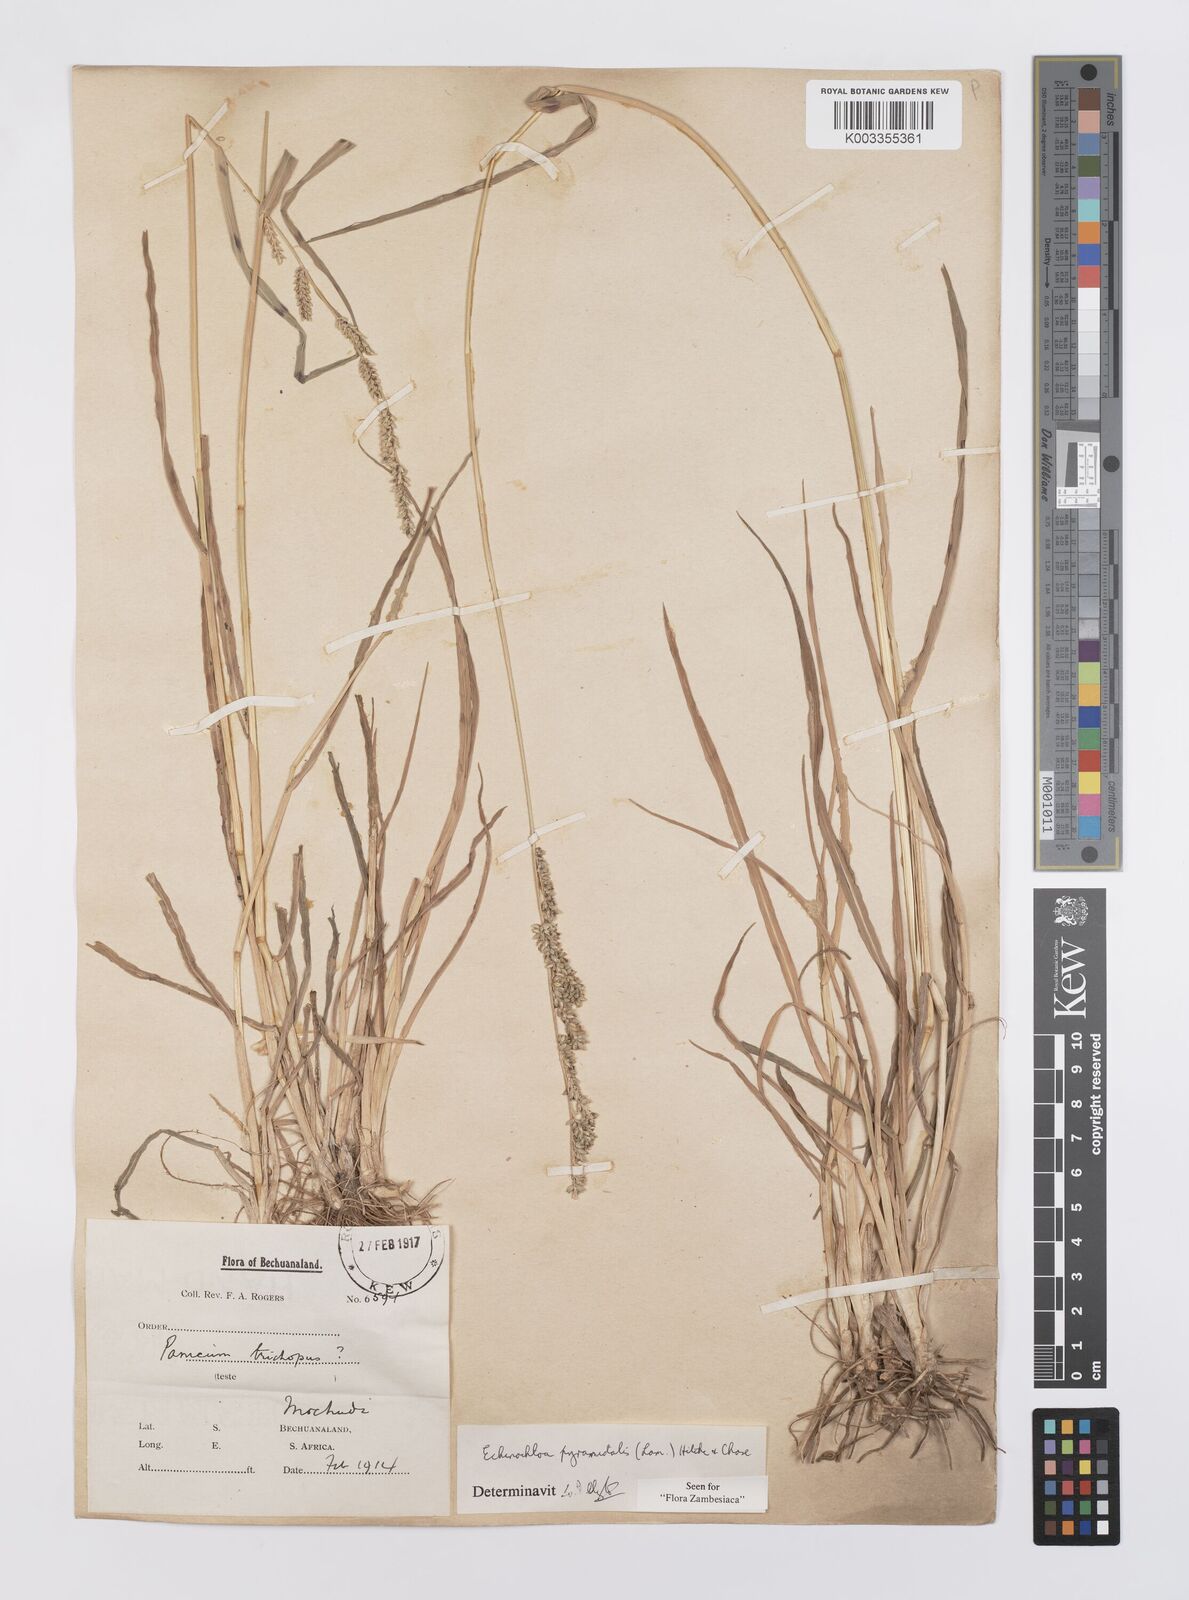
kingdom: Plantae
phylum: Tracheophyta
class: Liliopsida
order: Poales
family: Poaceae
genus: Echinochloa
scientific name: Echinochloa pyramidalis
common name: Antelope grass
